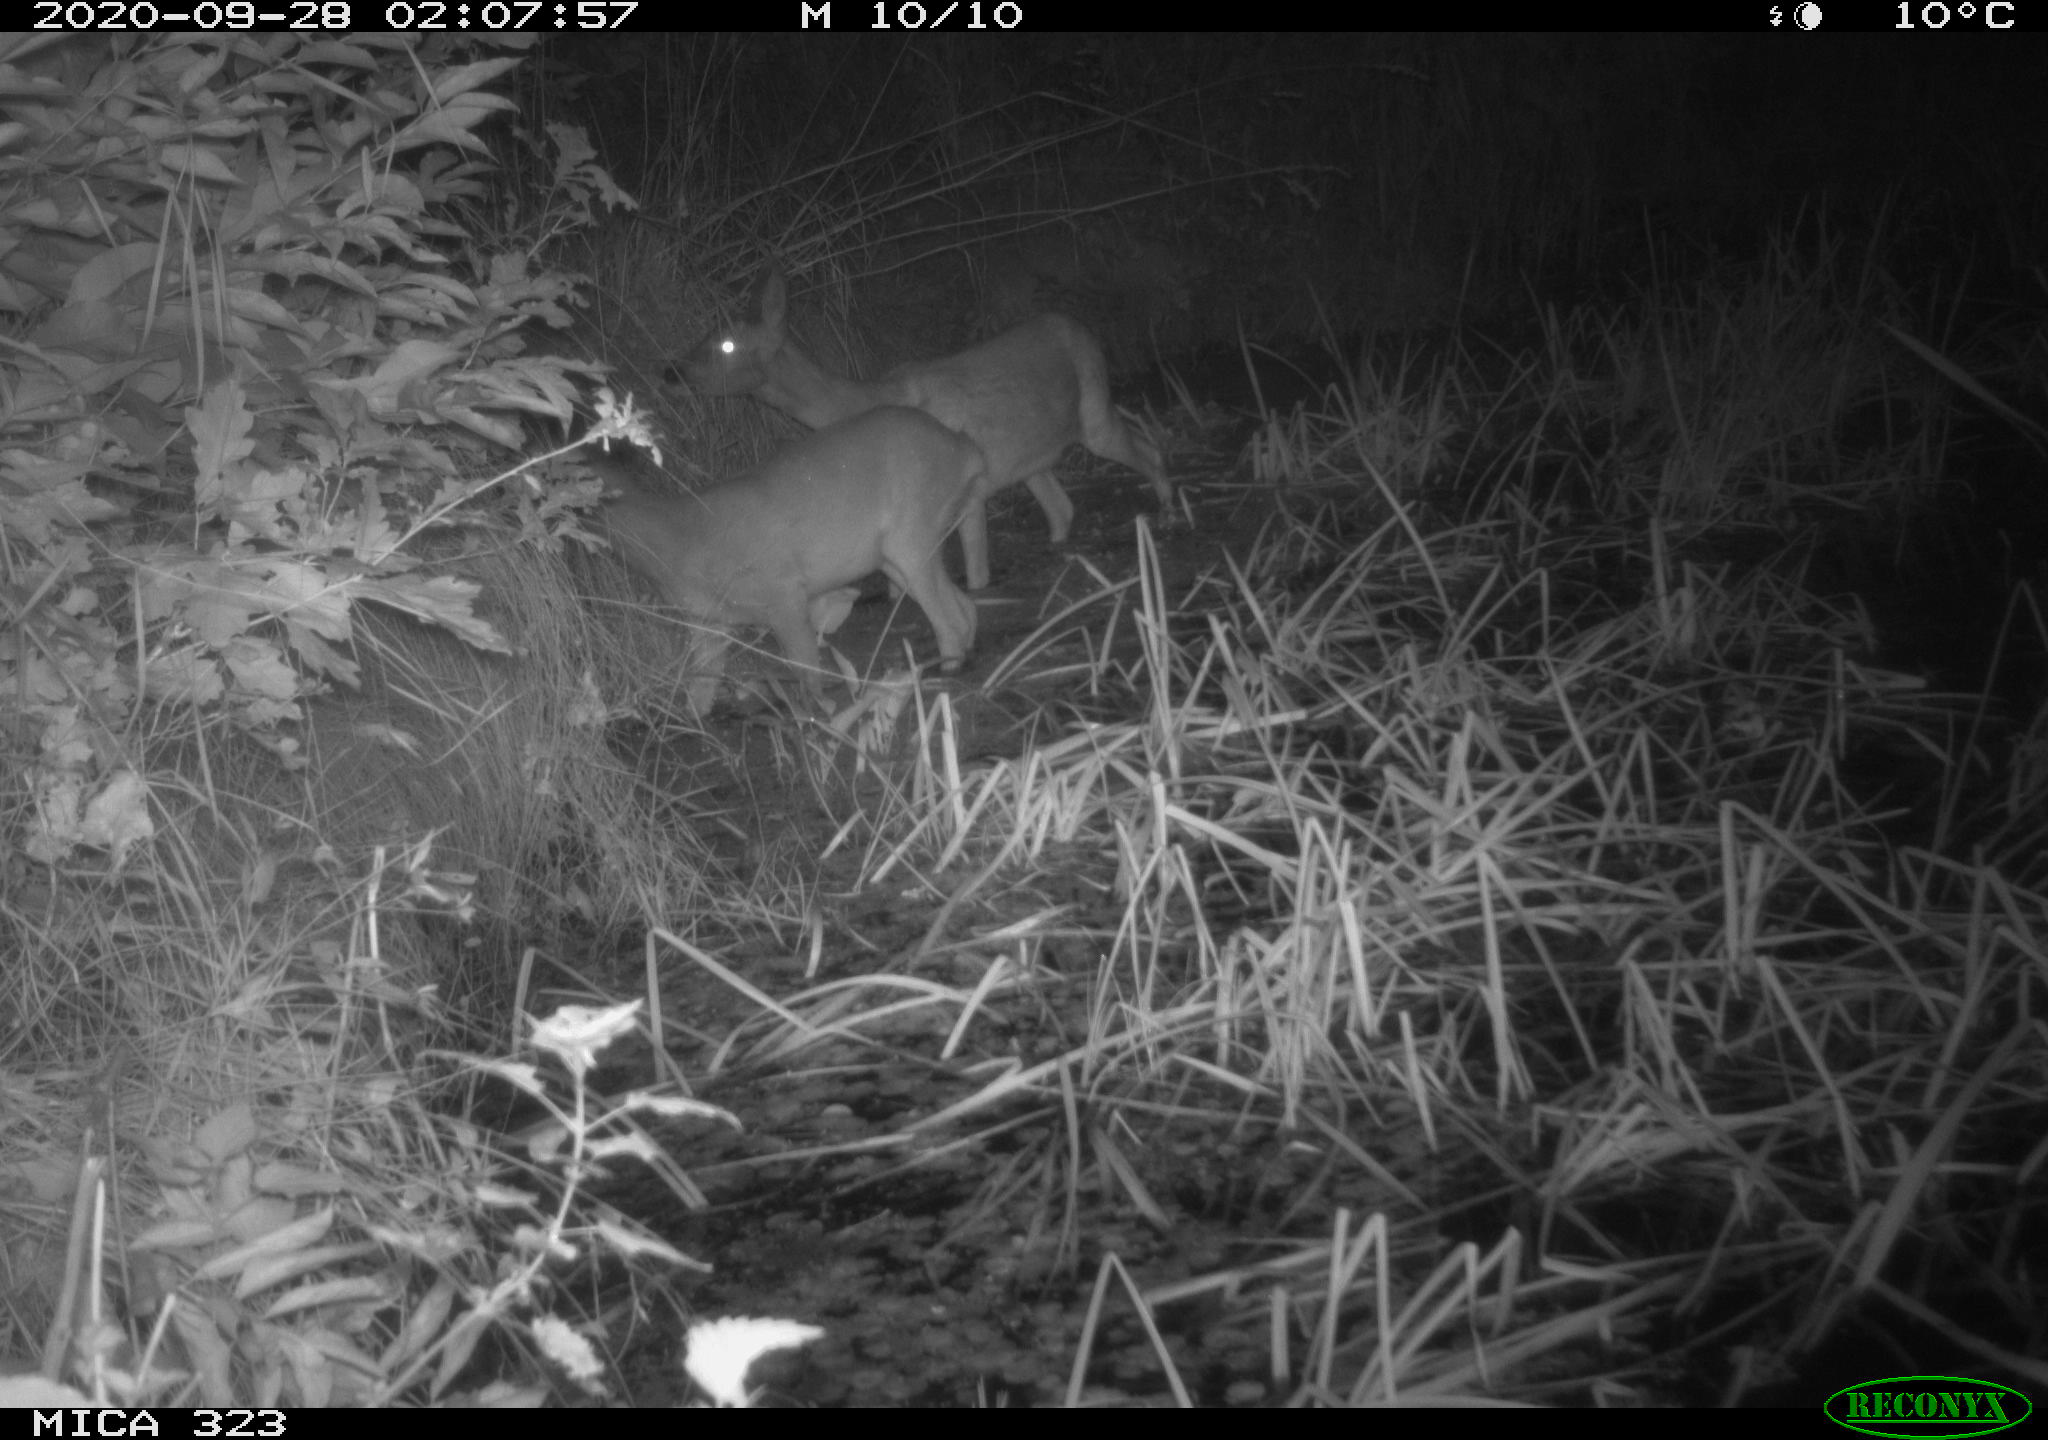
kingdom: Animalia
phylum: Chordata
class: Mammalia
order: Artiodactyla
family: Cervidae
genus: Capreolus
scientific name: Capreolus capreolus
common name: Western roe deer
